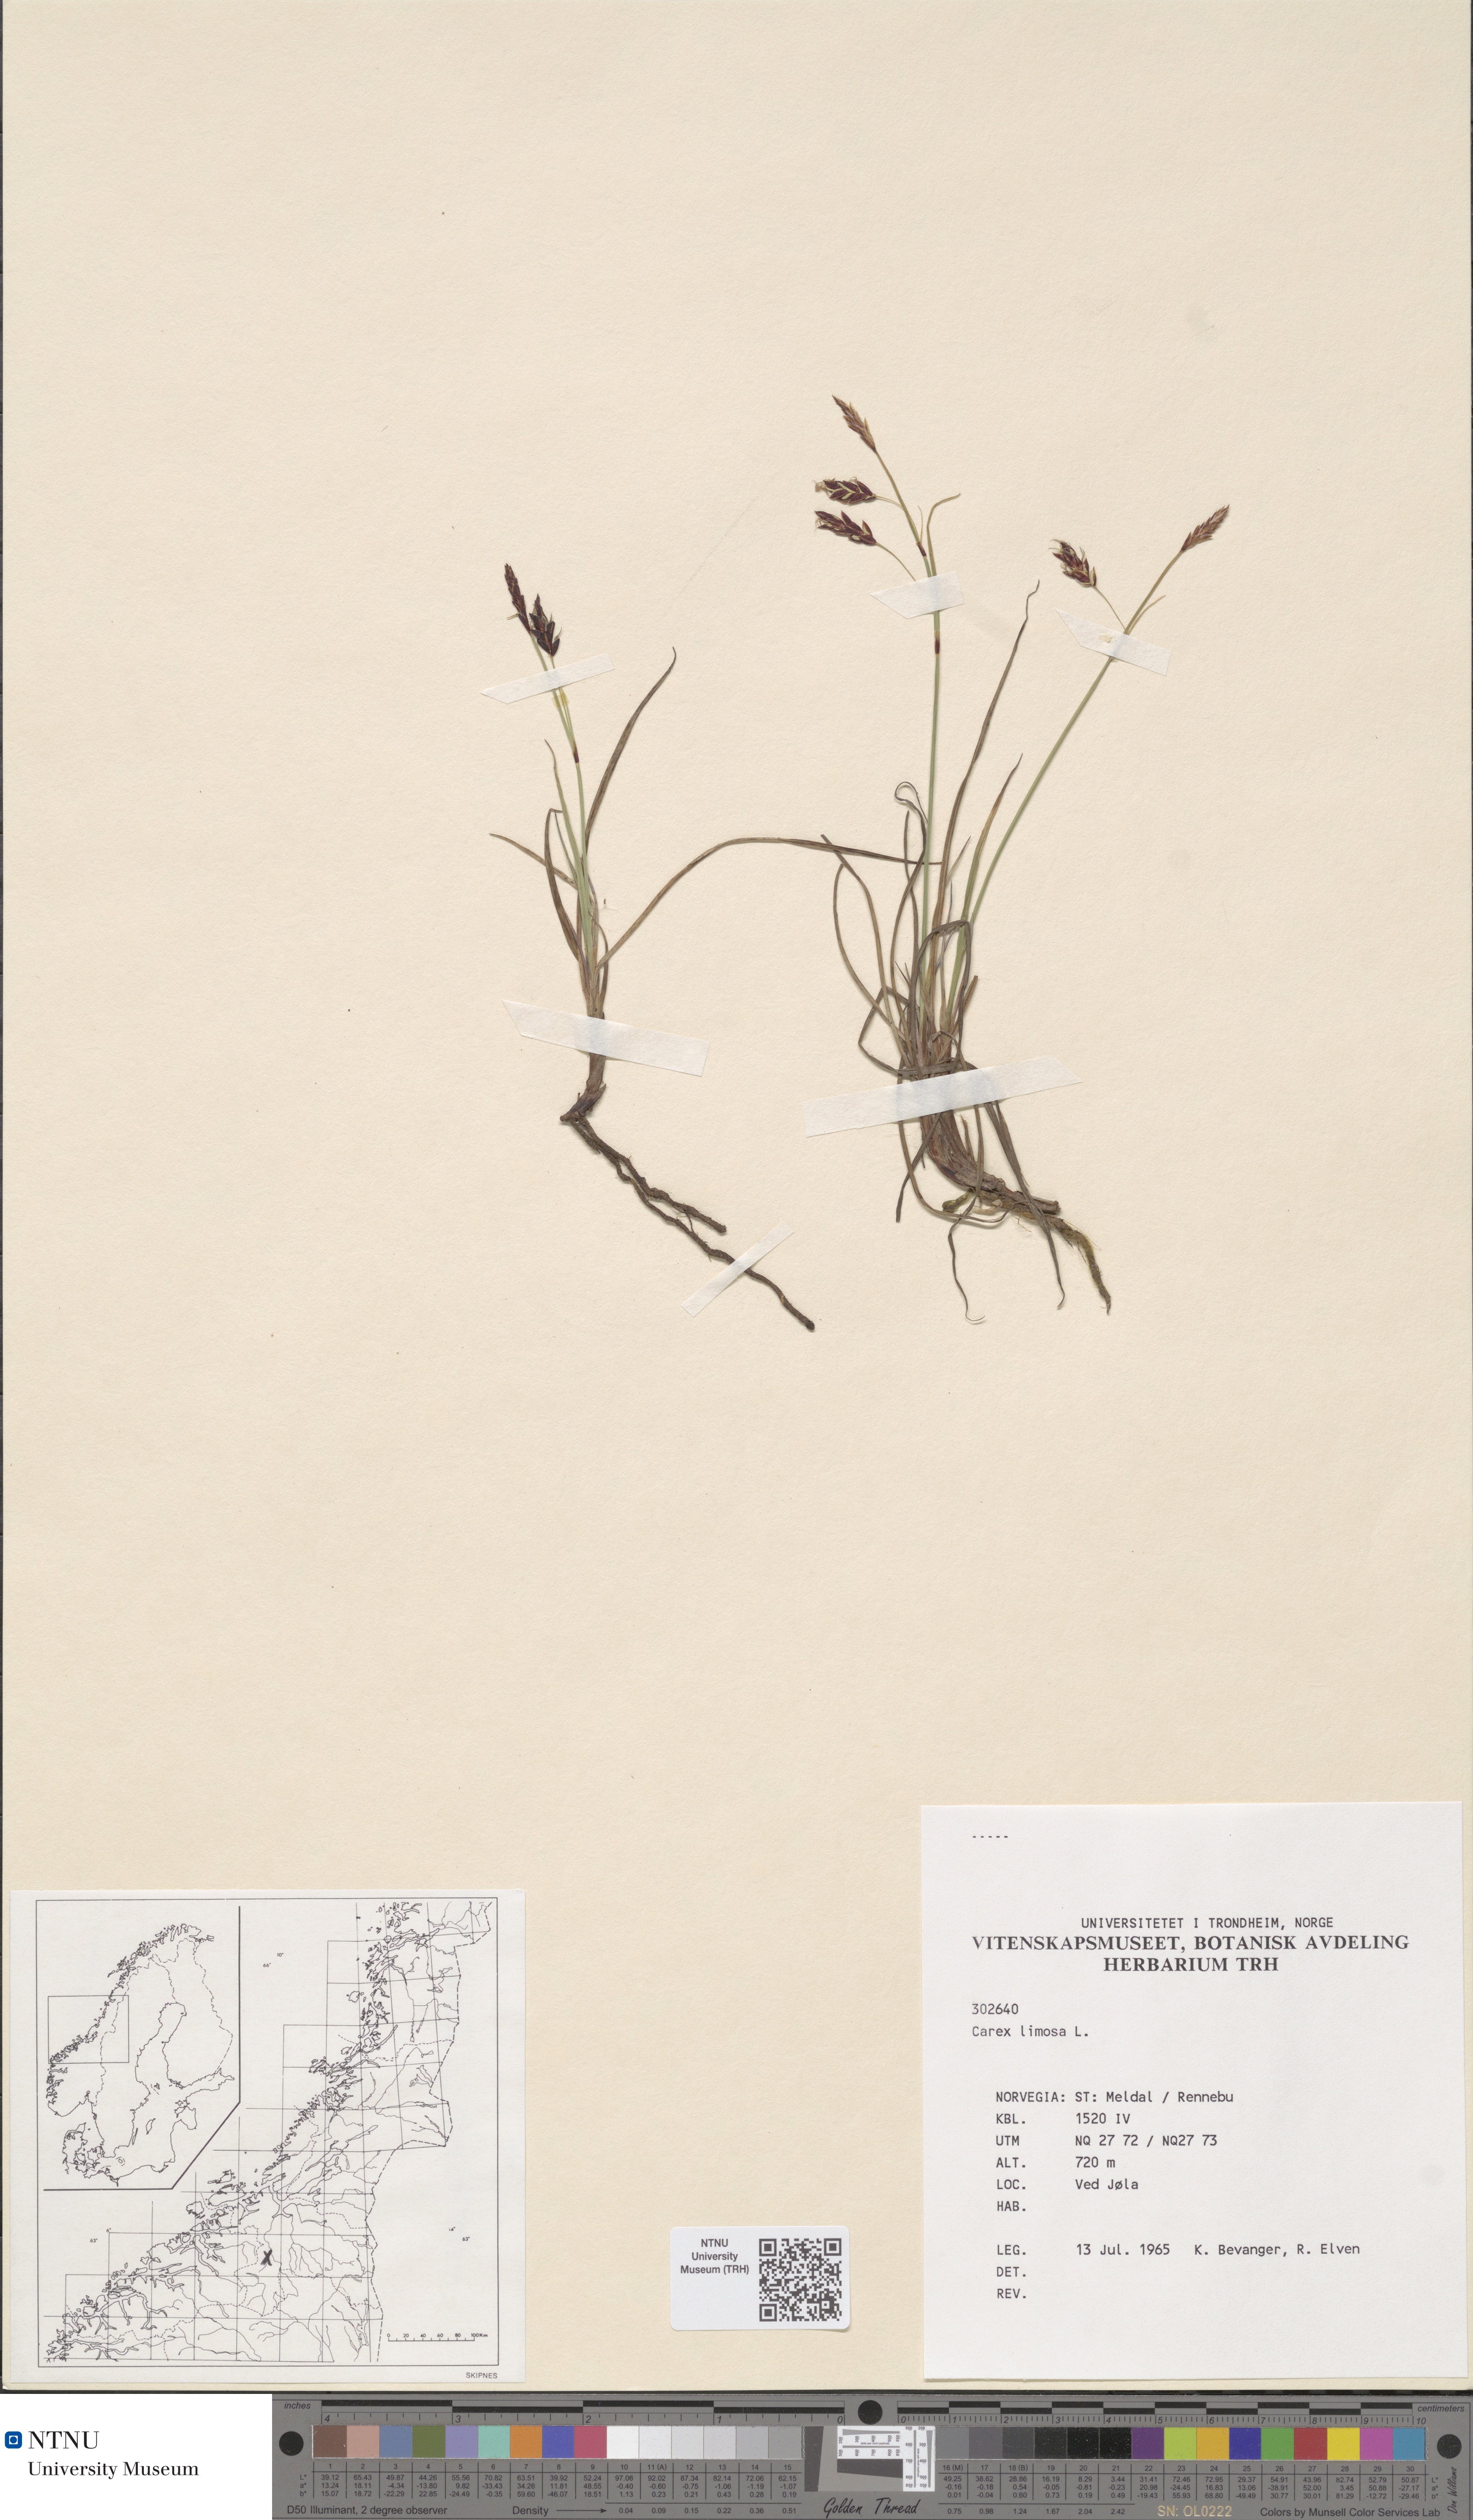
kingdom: Plantae
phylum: Tracheophyta
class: Liliopsida
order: Poales
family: Cyperaceae
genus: Carex
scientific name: Carex limosa
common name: Bog sedge
